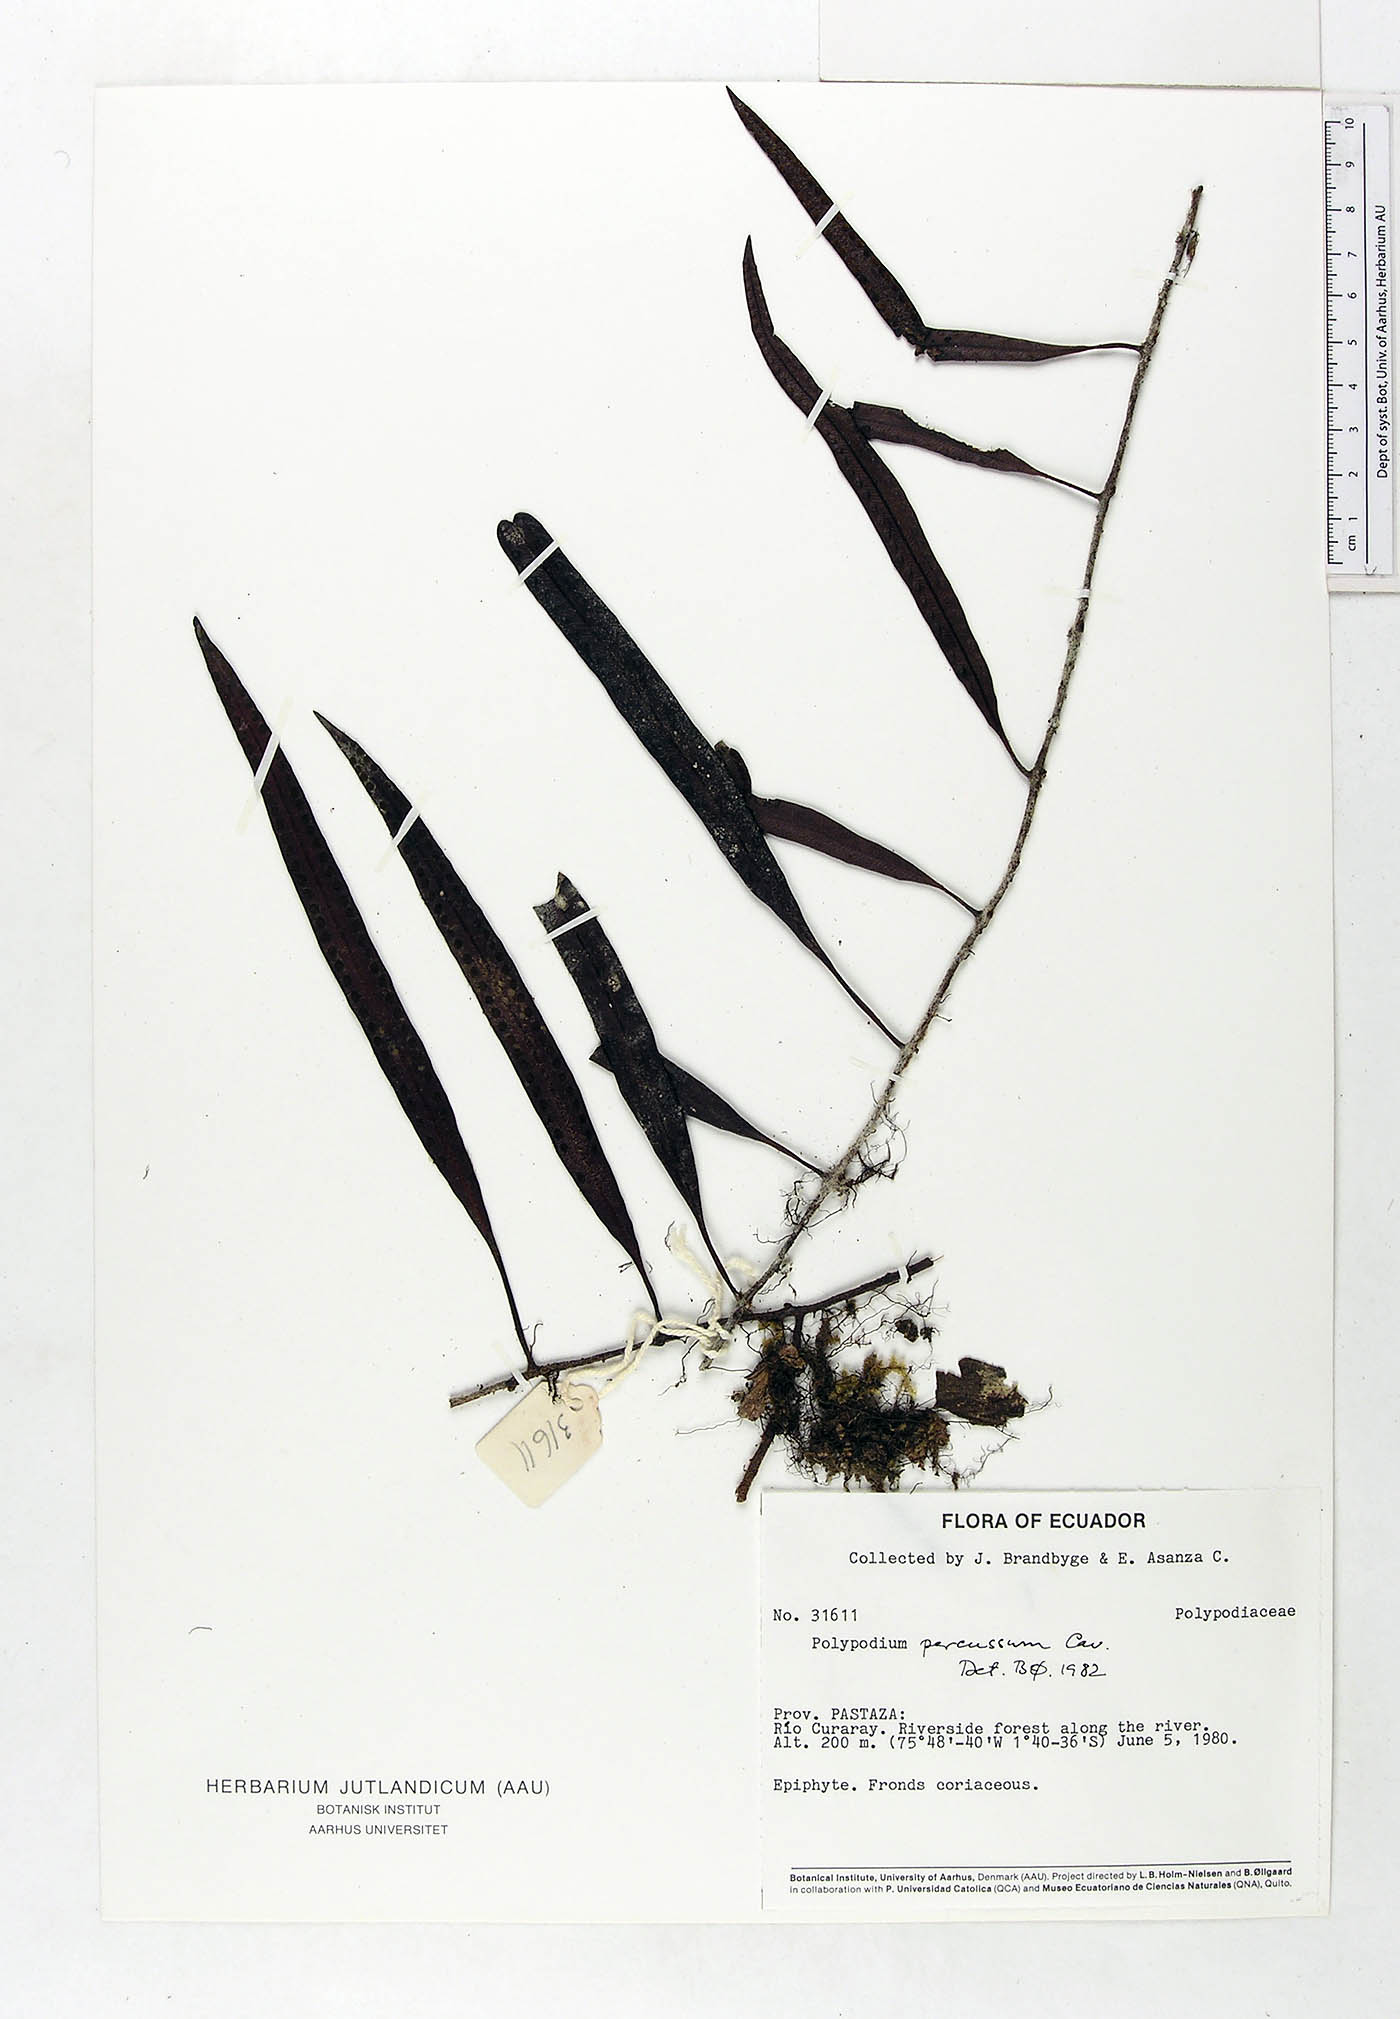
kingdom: Plantae
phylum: Tracheophyta
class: Polypodiopsida
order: Polypodiales
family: Polypodiaceae
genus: Microgramma
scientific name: Microgramma percussa
